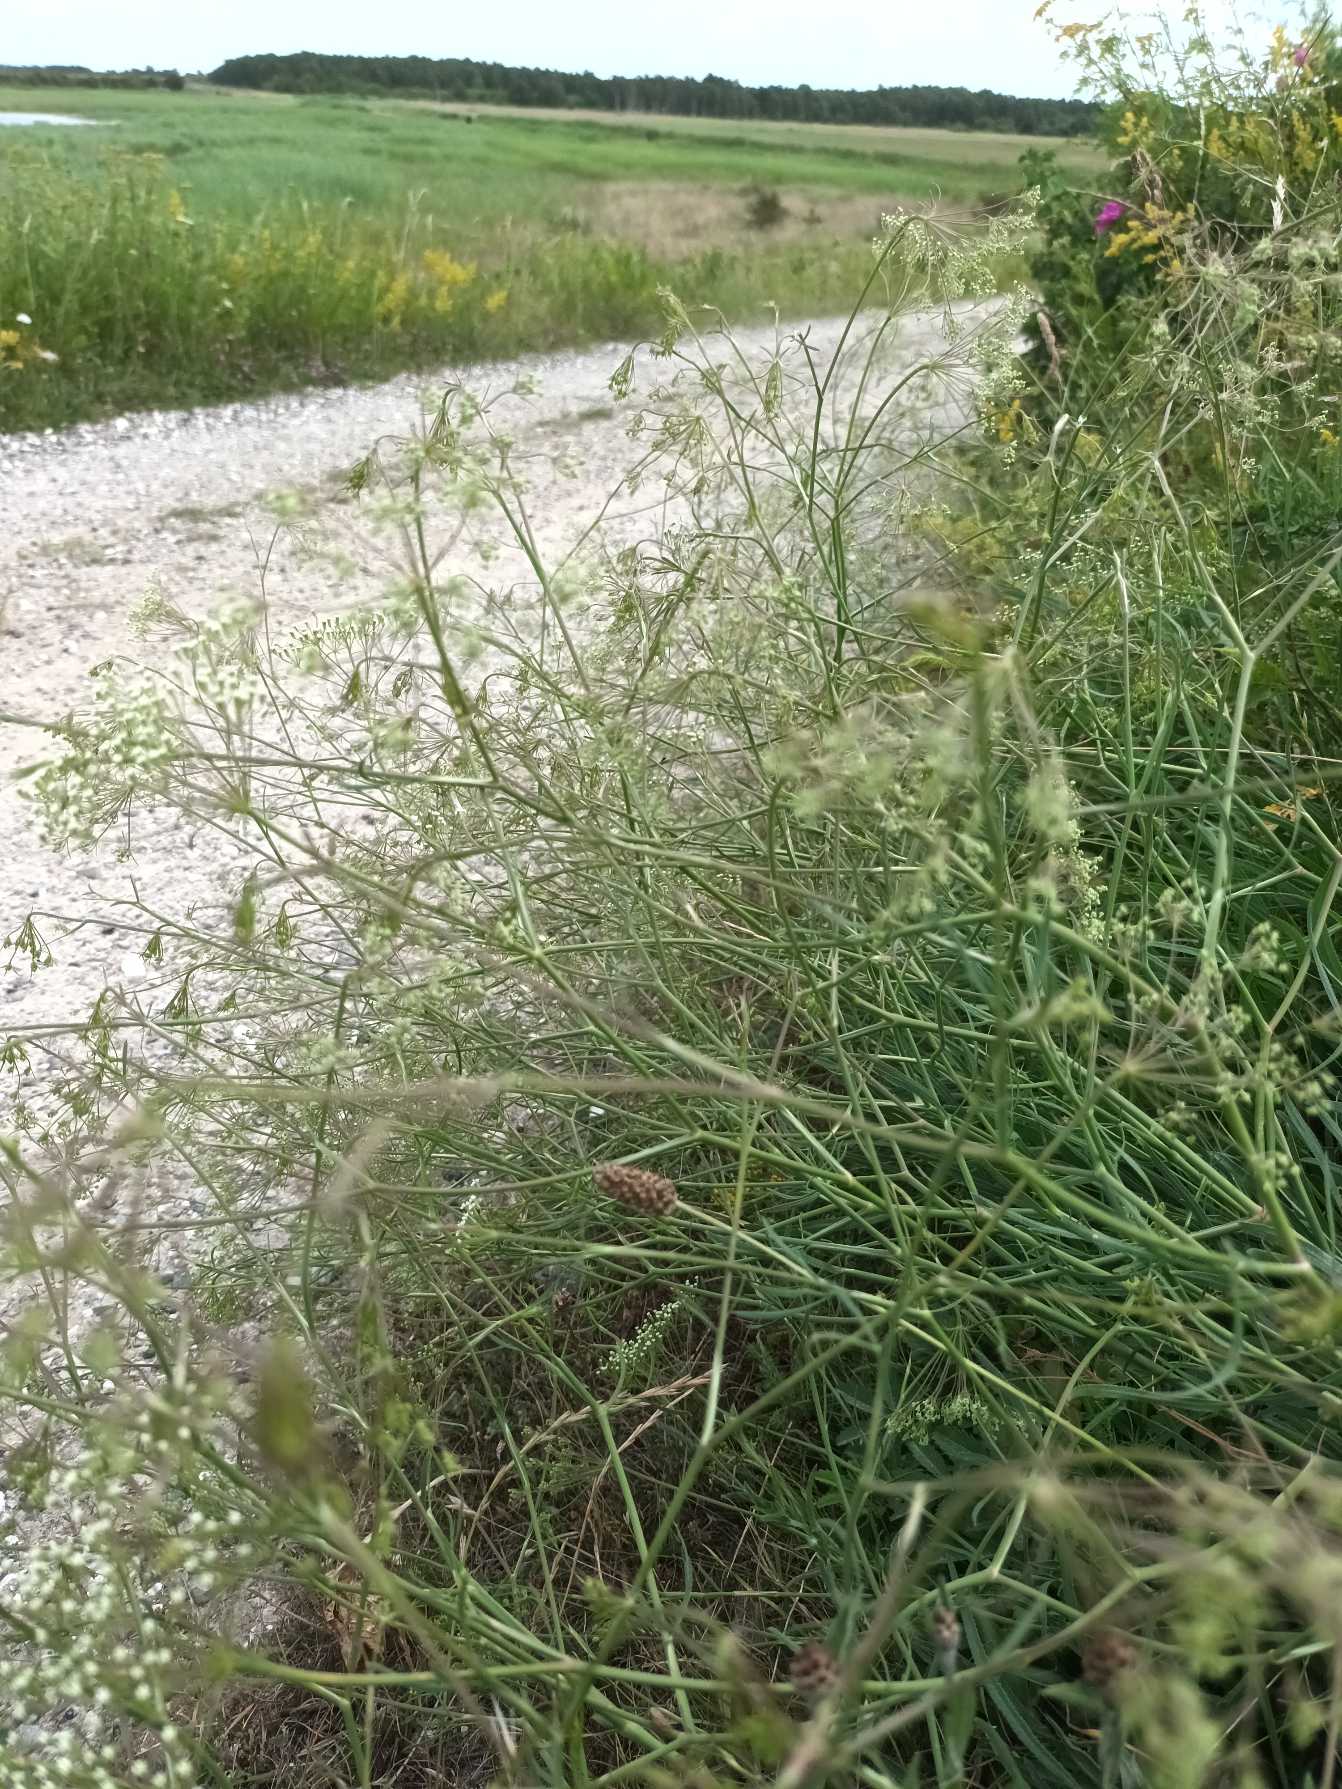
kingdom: Plantae
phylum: Tracheophyta
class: Magnoliopsida
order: Apiales
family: Apiaceae
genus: Falcaria
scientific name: Falcaria vulgaris
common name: Seglblad
